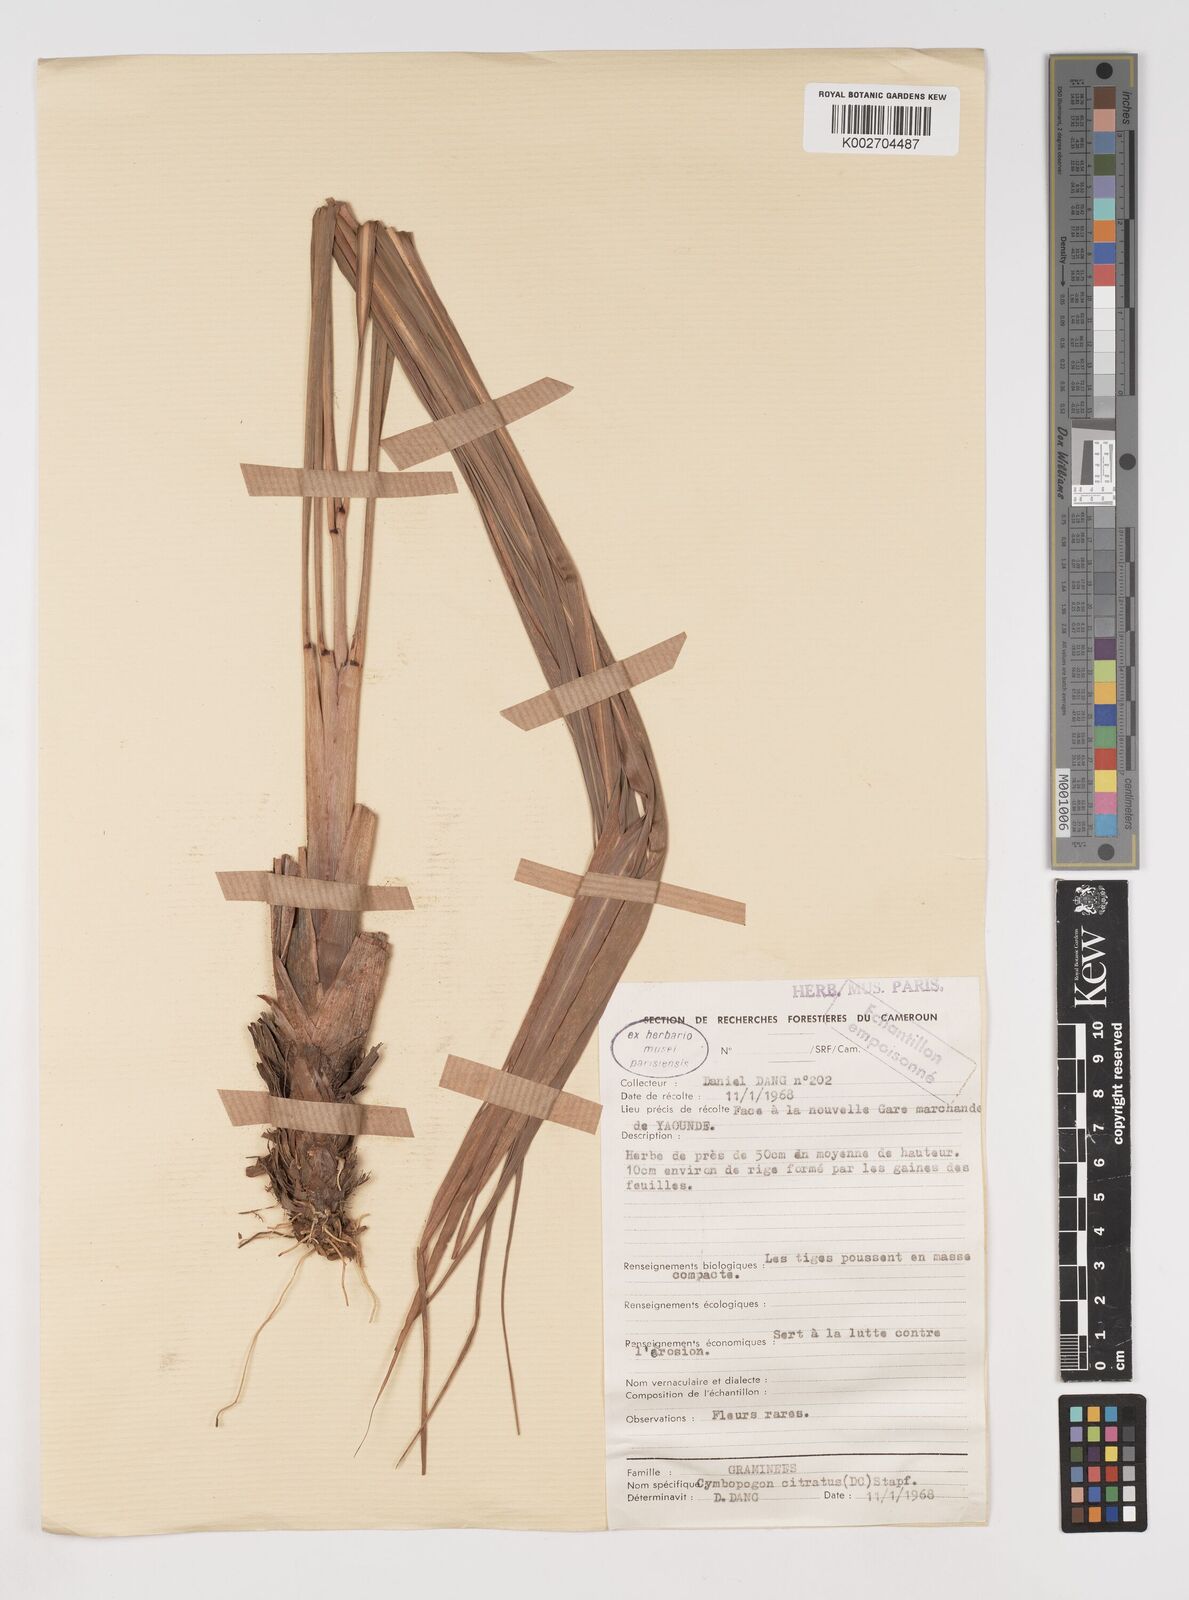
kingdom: Plantae
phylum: Tracheophyta
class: Liliopsida
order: Poales
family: Poaceae
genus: Cymbopogon
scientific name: Cymbopogon citratus
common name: Lemon grass
